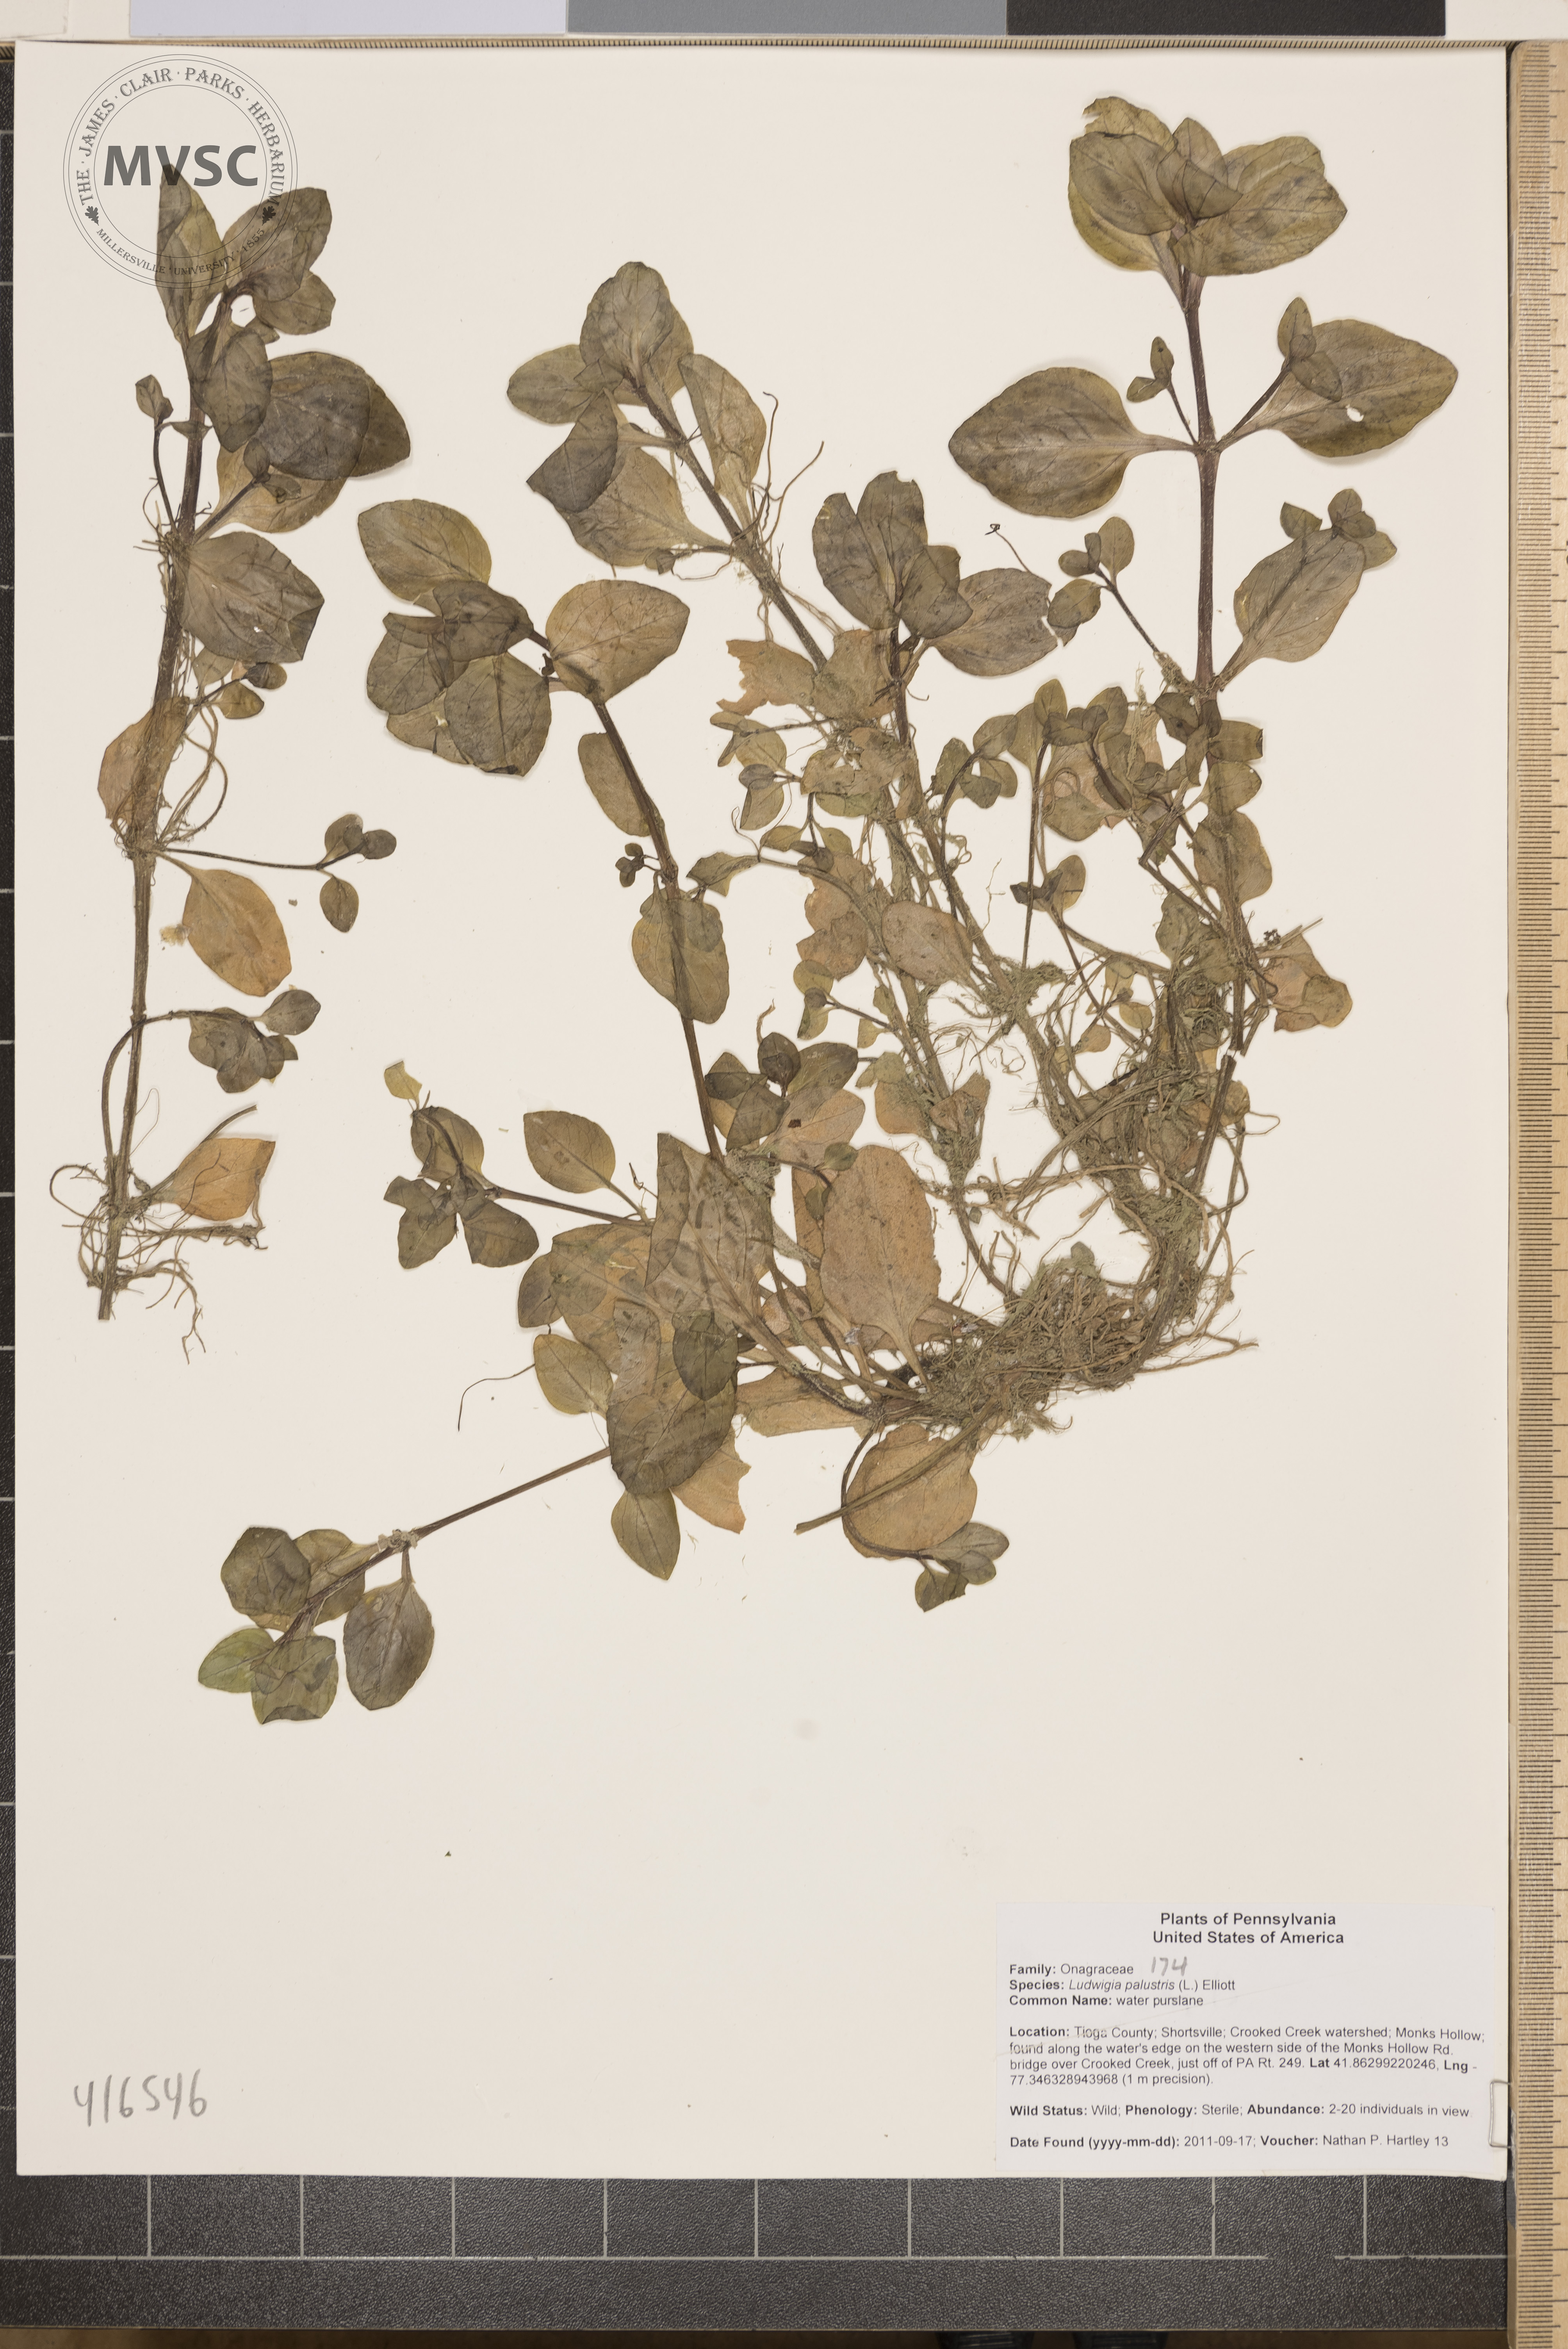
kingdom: Plantae
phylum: Tracheophyta
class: Magnoliopsida
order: Myrtales
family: Onagraceae
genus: Ludwigia
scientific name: Ludwigia palustris
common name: water purslane
